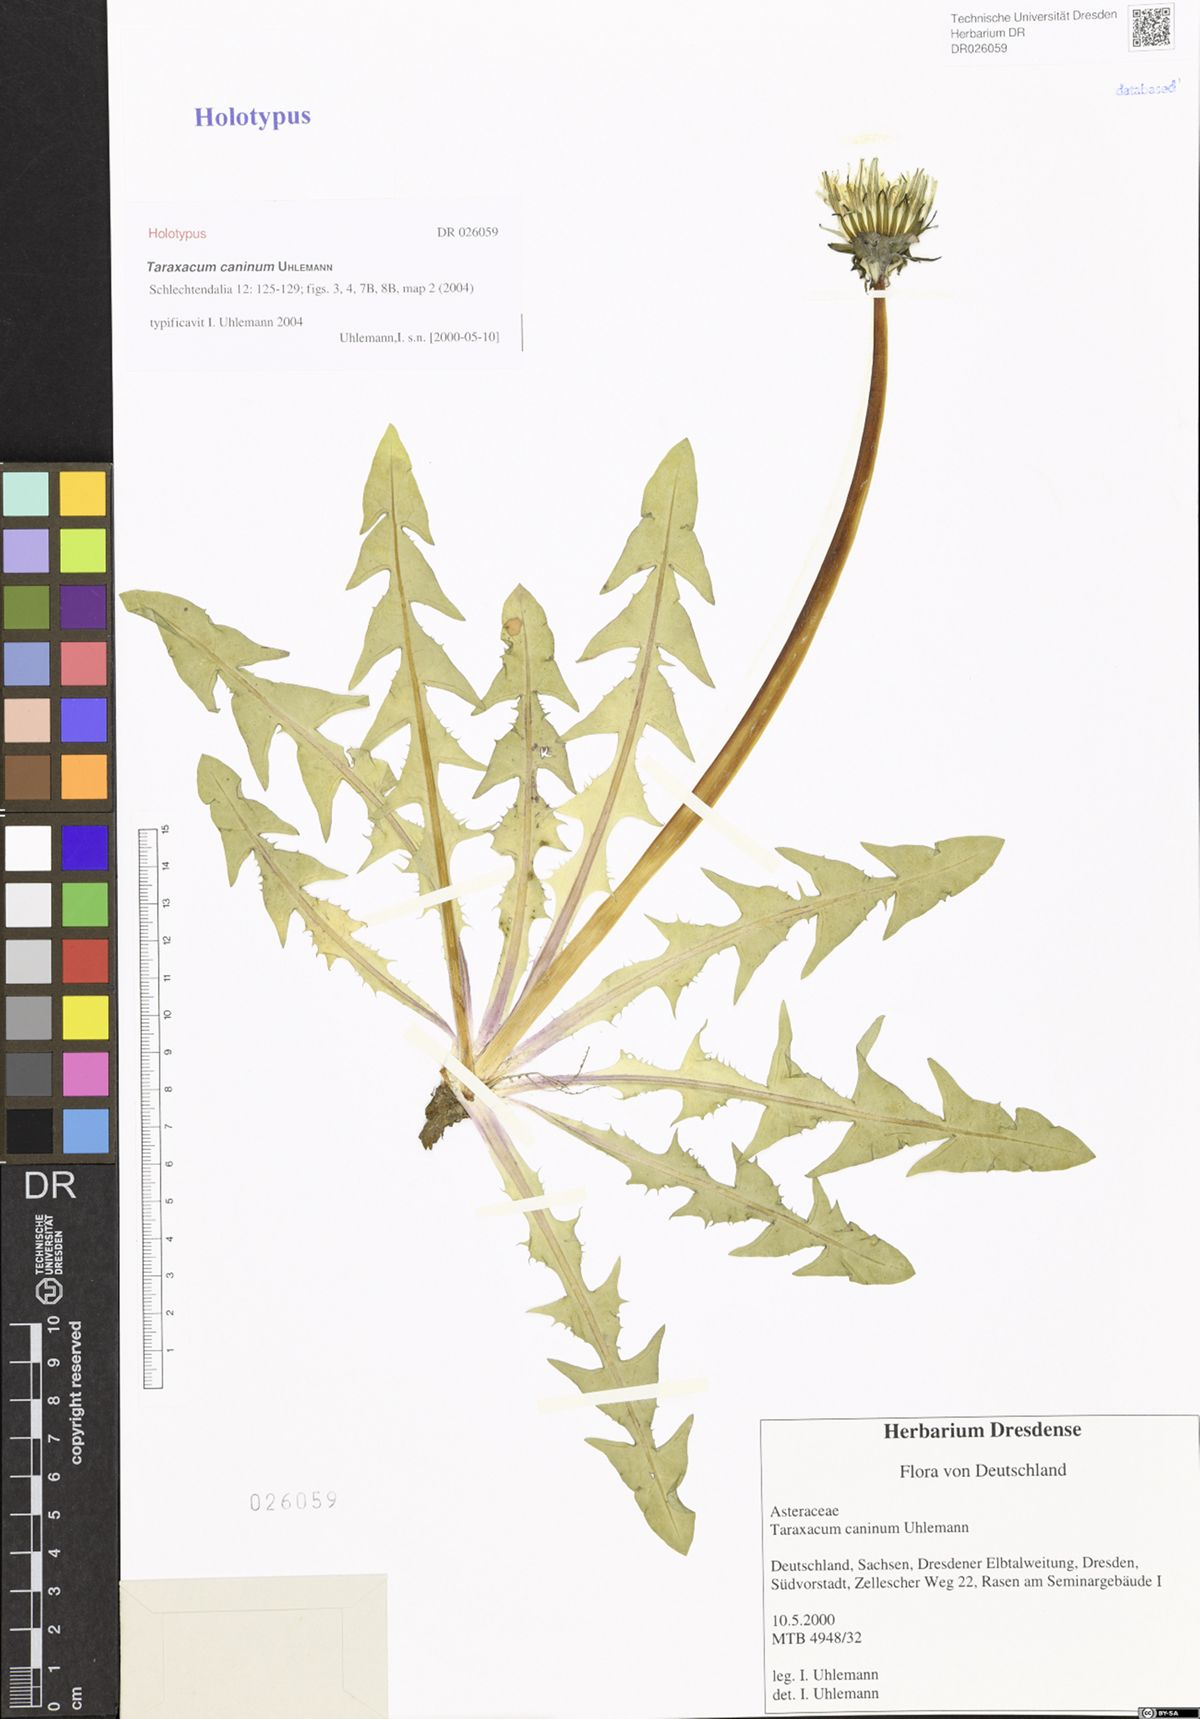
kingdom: Plantae
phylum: Tracheophyta
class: Magnoliopsida
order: Asterales
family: Asteraceae
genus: Taraxacum
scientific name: Taraxacum caninum
